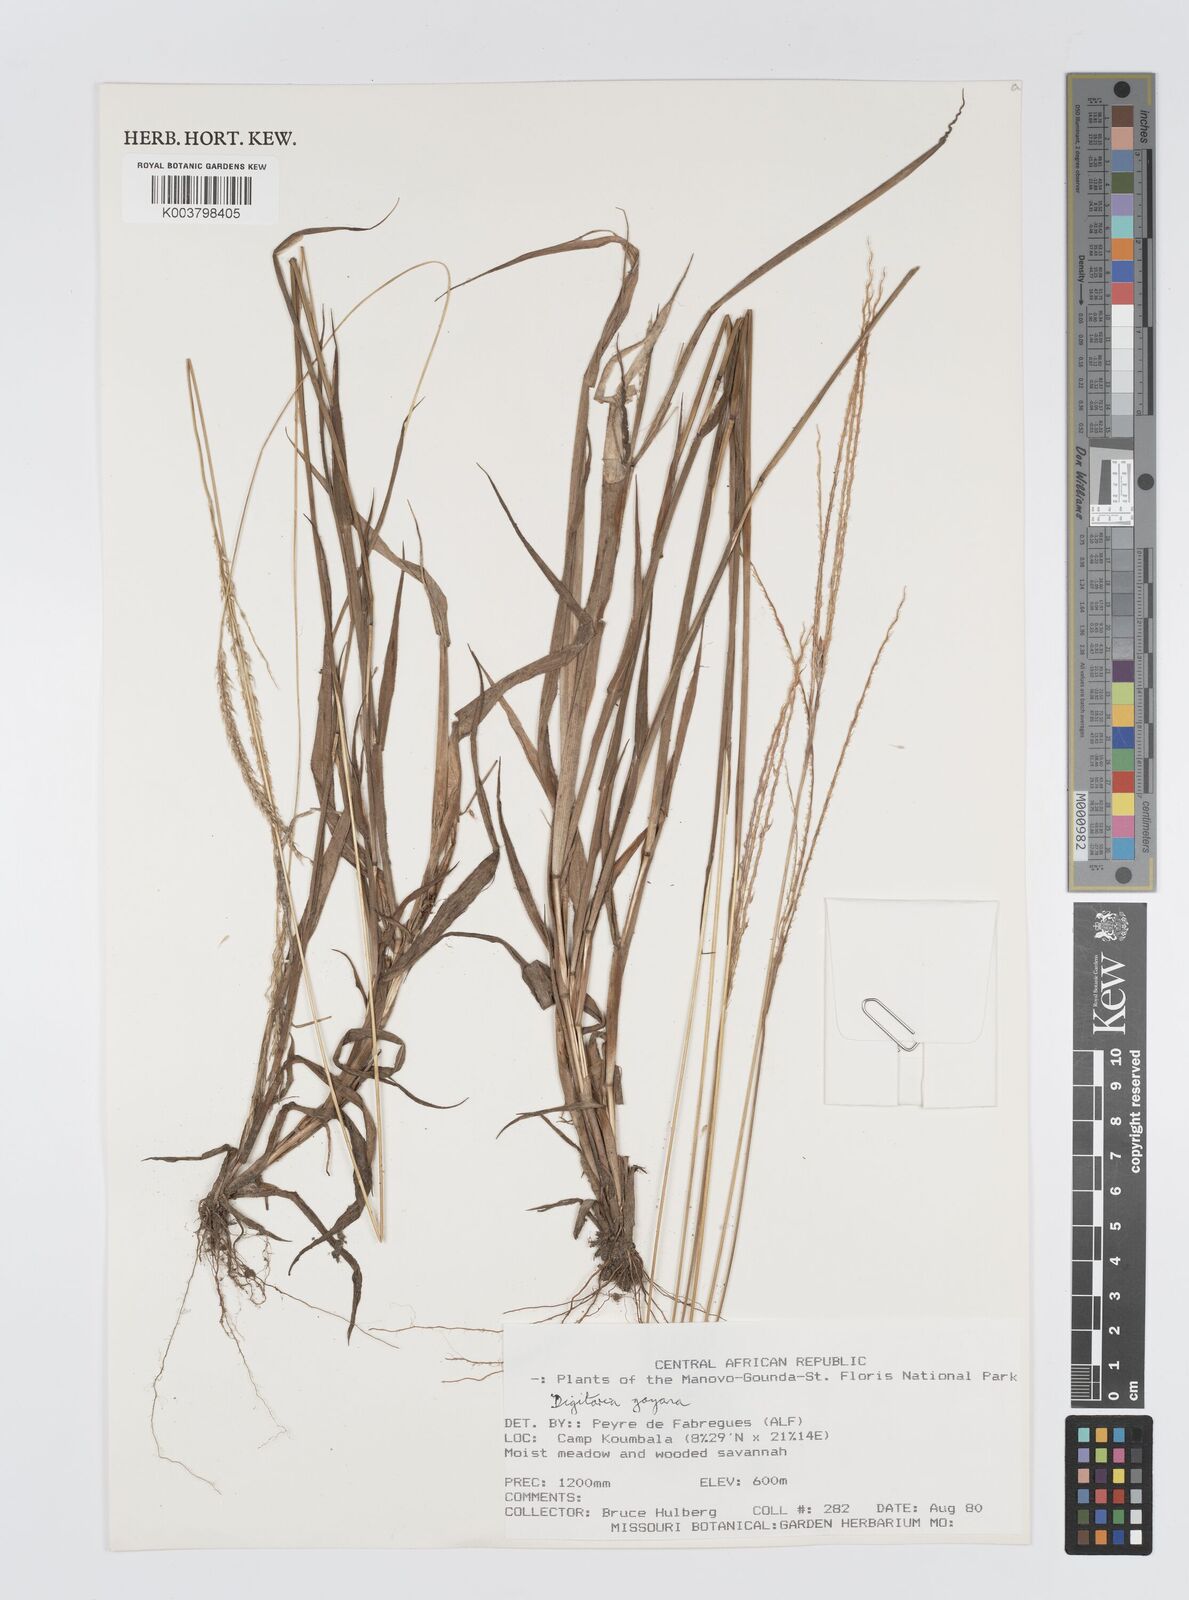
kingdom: Plantae
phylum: Tracheophyta
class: Liliopsida
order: Poales
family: Poaceae
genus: Digitaria
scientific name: Digitaria gayana
